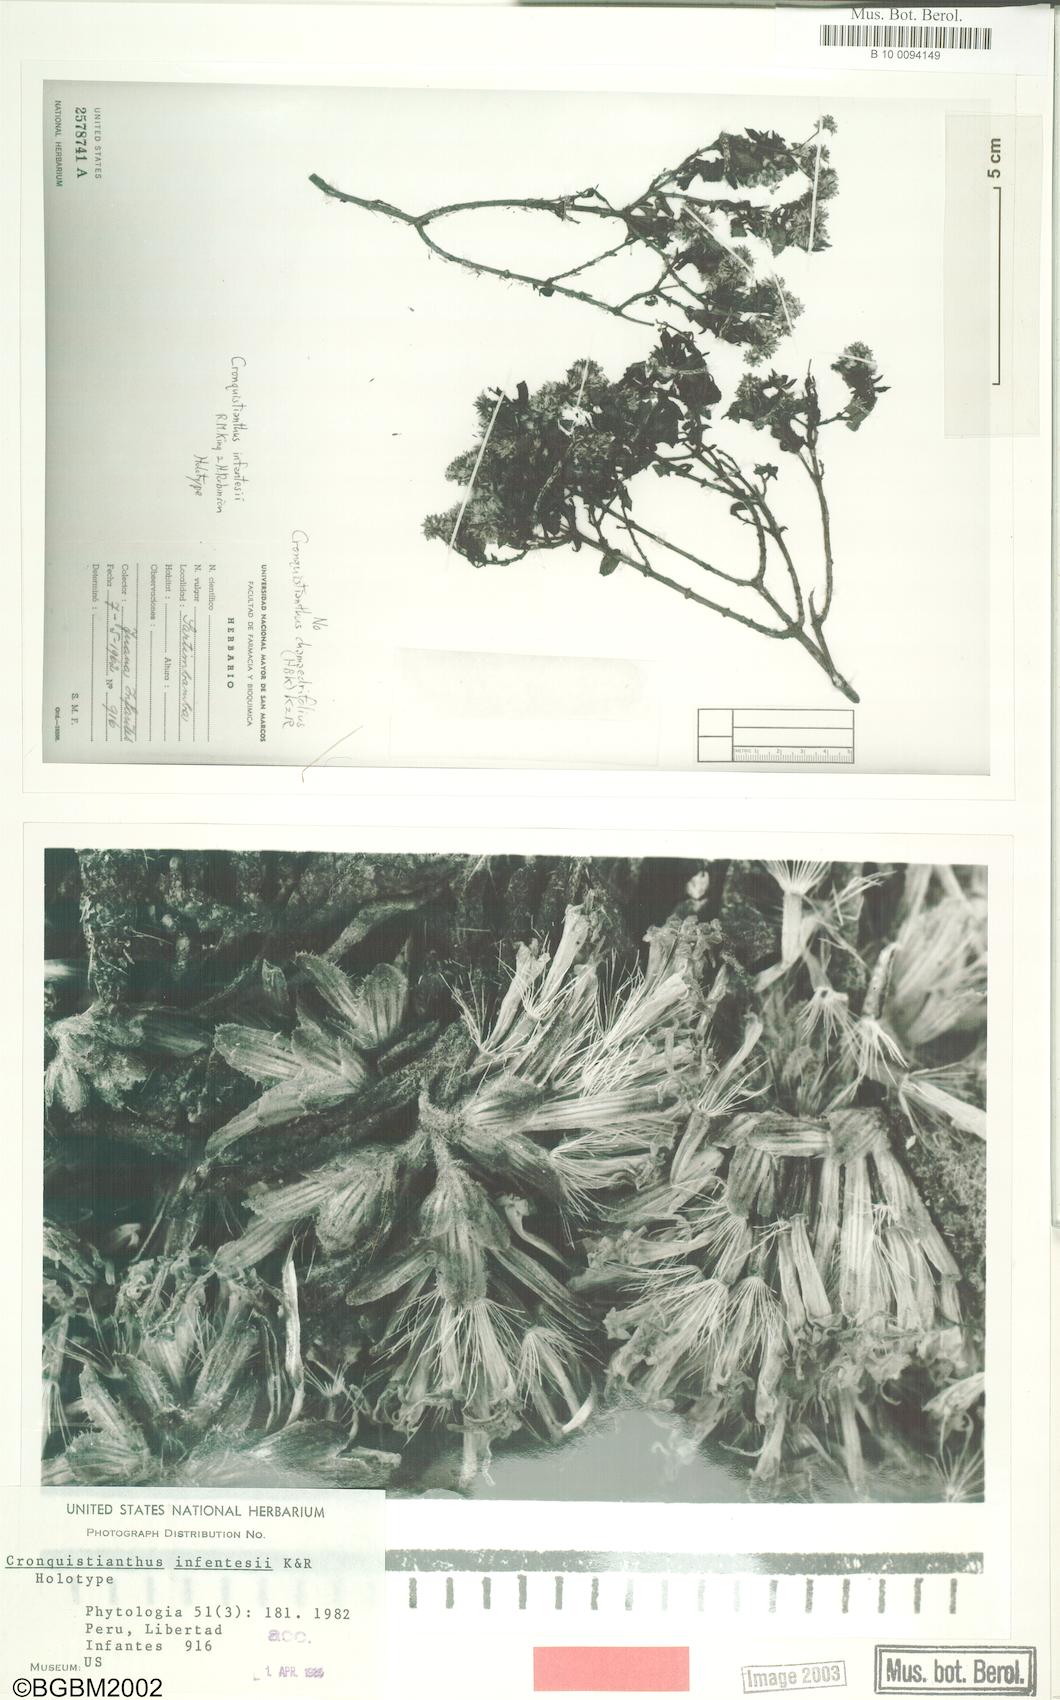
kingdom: Plantae
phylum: Tracheophyta
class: Magnoliopsida
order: Asterales
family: Asteraceae
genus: Cronquistianthus
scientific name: Cronquistianthus determinatus
